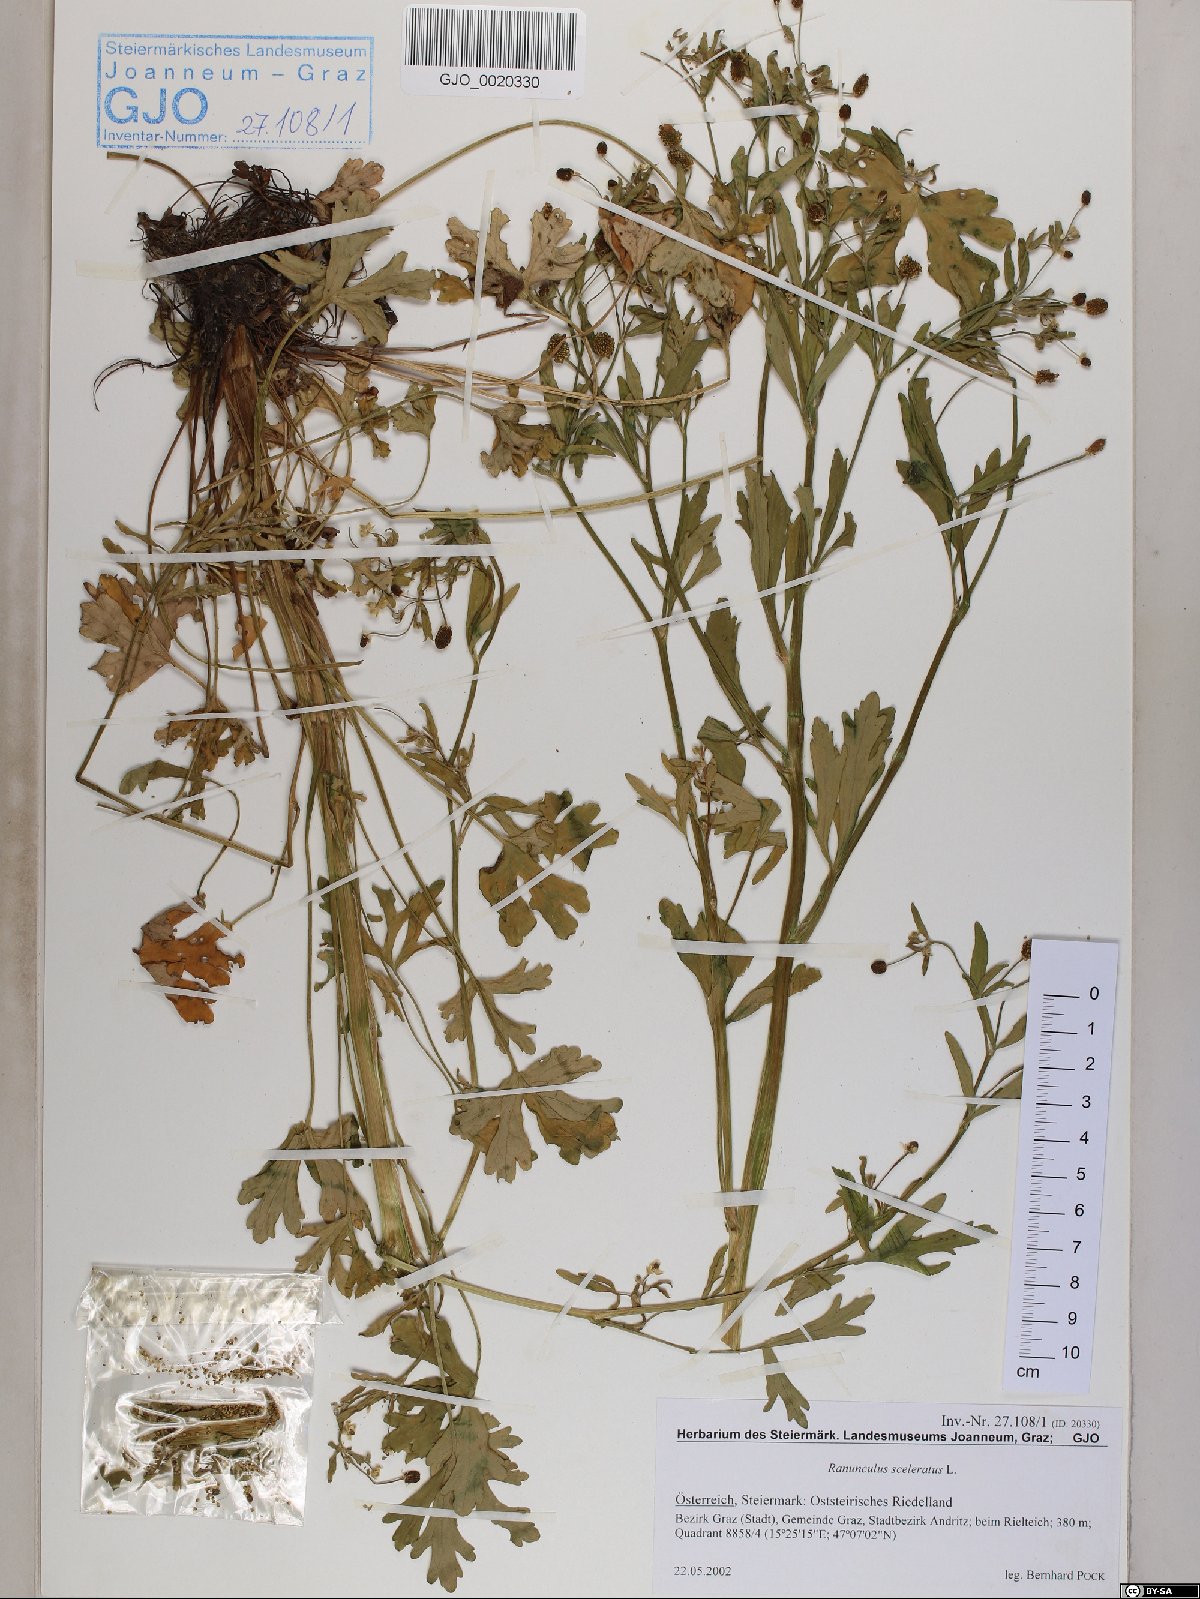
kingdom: Plantae
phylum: Tracheophyta
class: Magnoliopsida
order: Ranunculales
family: Ranunculaceae
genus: Ranunculus
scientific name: Ranunculus sceleratus
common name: Celery-leaved buttercup
